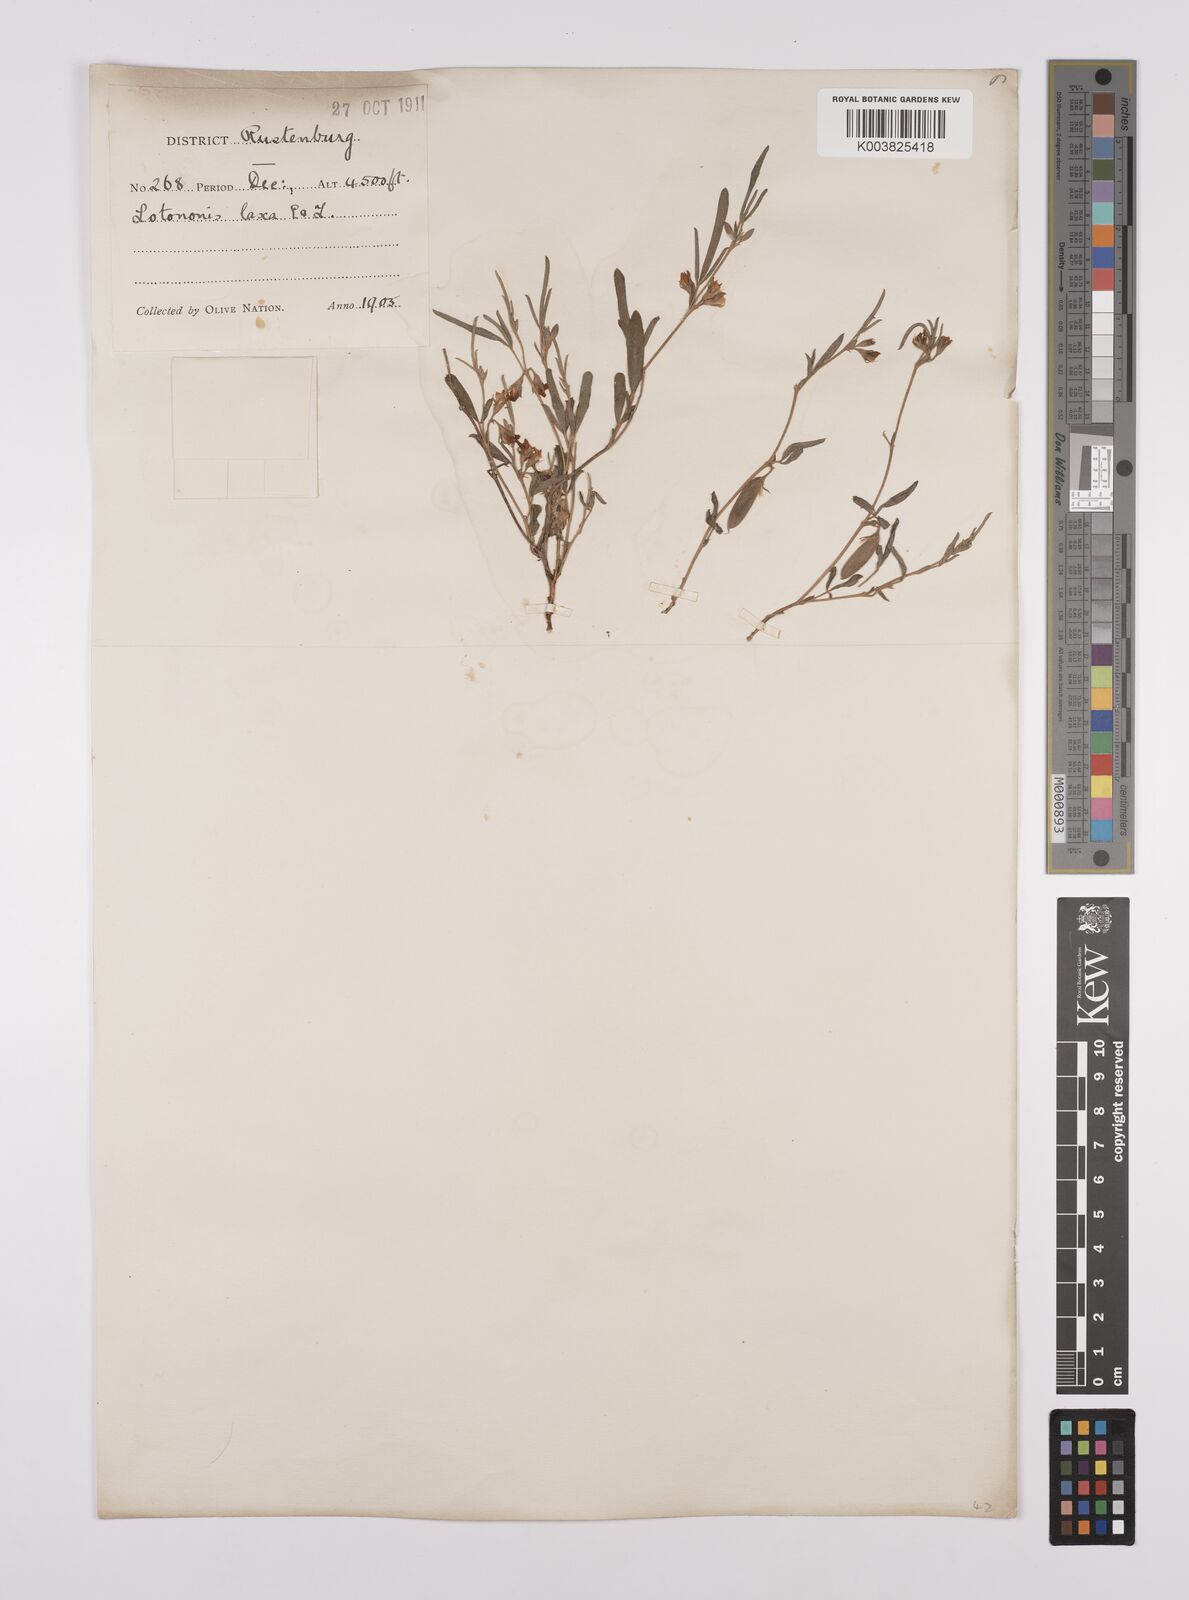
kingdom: Plantae
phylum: Tracheophyta
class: Magnoliopsida
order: Fabales
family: Fabaceae
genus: Lotononis
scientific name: Lotononis laxa
